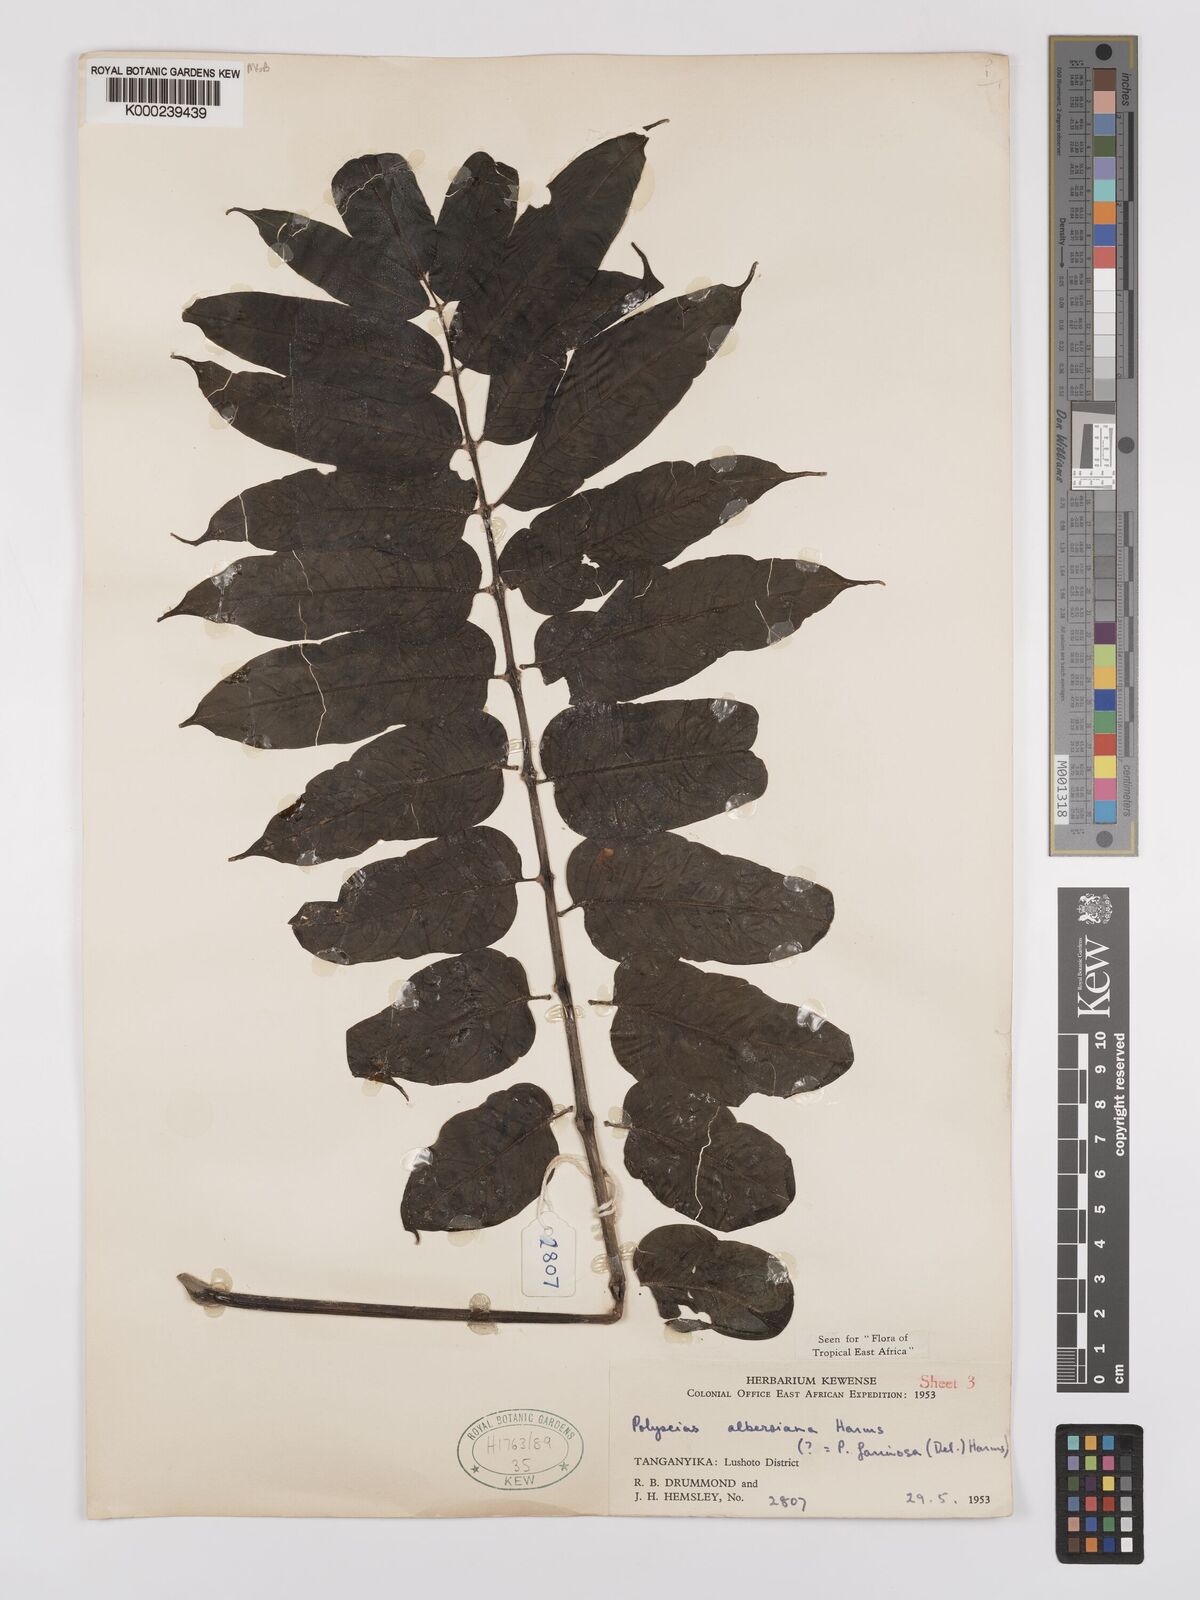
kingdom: Plantae
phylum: Tracheophyta
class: Magnoliopsida
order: Apiales
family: Araliaceae
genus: Polyscias
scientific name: Polyscias albersiana
